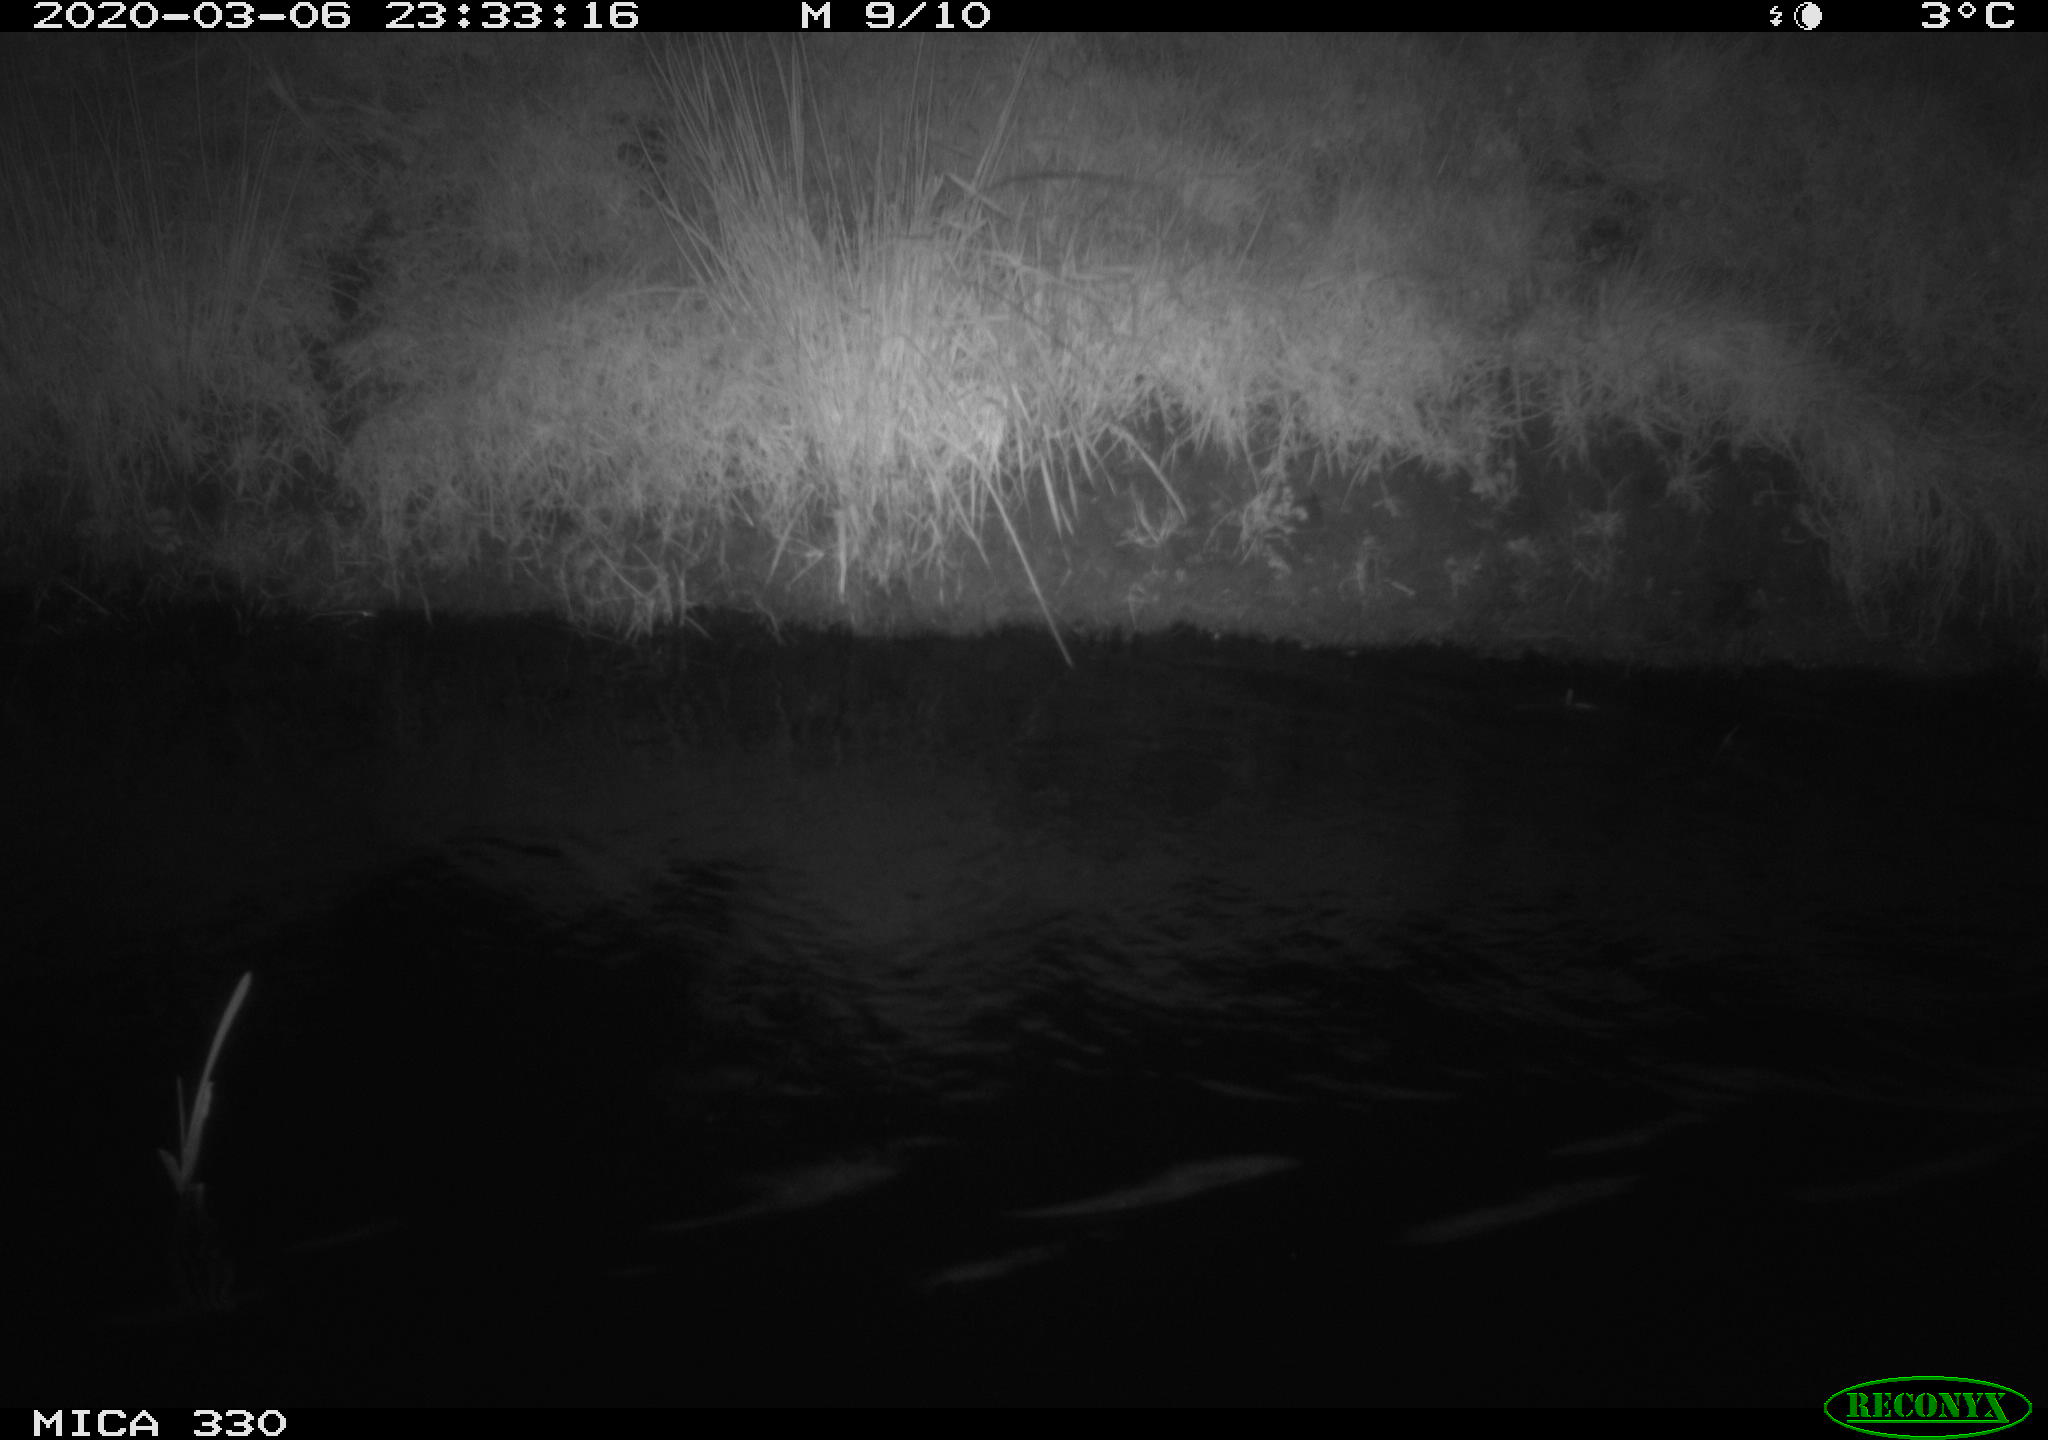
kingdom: Animalia
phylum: Chordata
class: Aves
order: Anseriformes
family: Anatidae
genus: Anas
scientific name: Anas platyrhynchos
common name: Mallard
